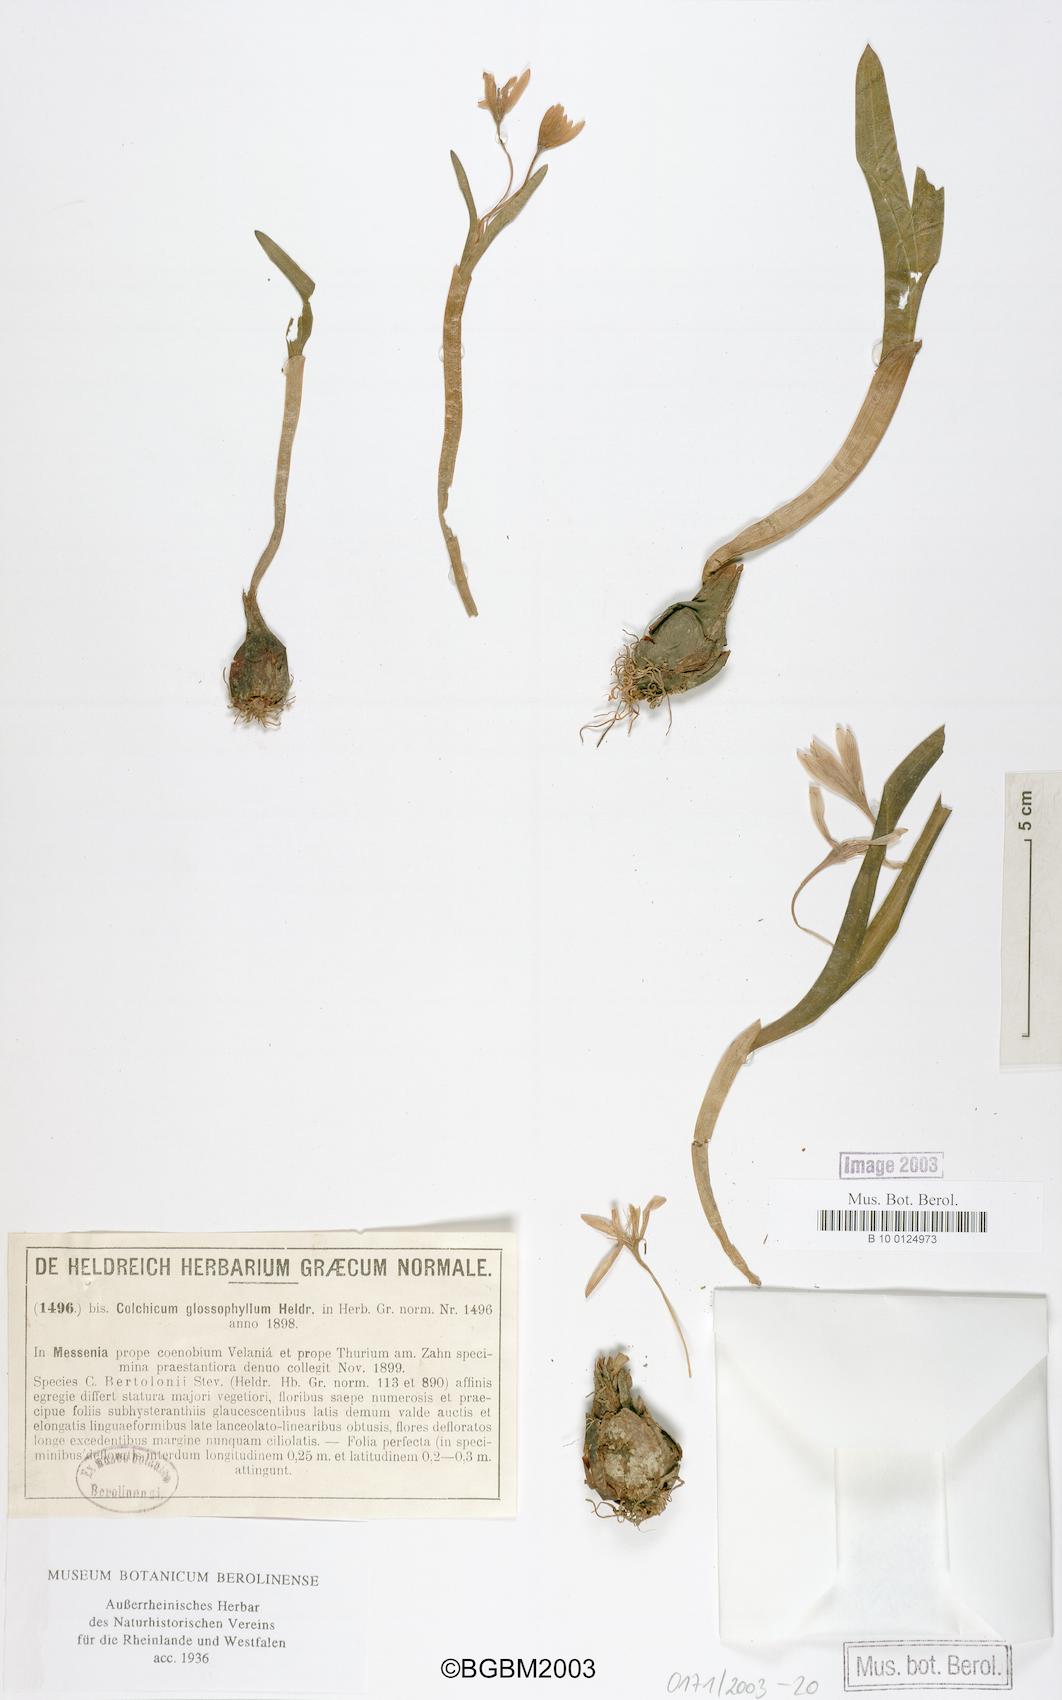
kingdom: Plantae
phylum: Tracheophyta
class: Liliopsida
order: Liliales
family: Colchicaceae
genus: Colchicum
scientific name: Colchicum cupanii
